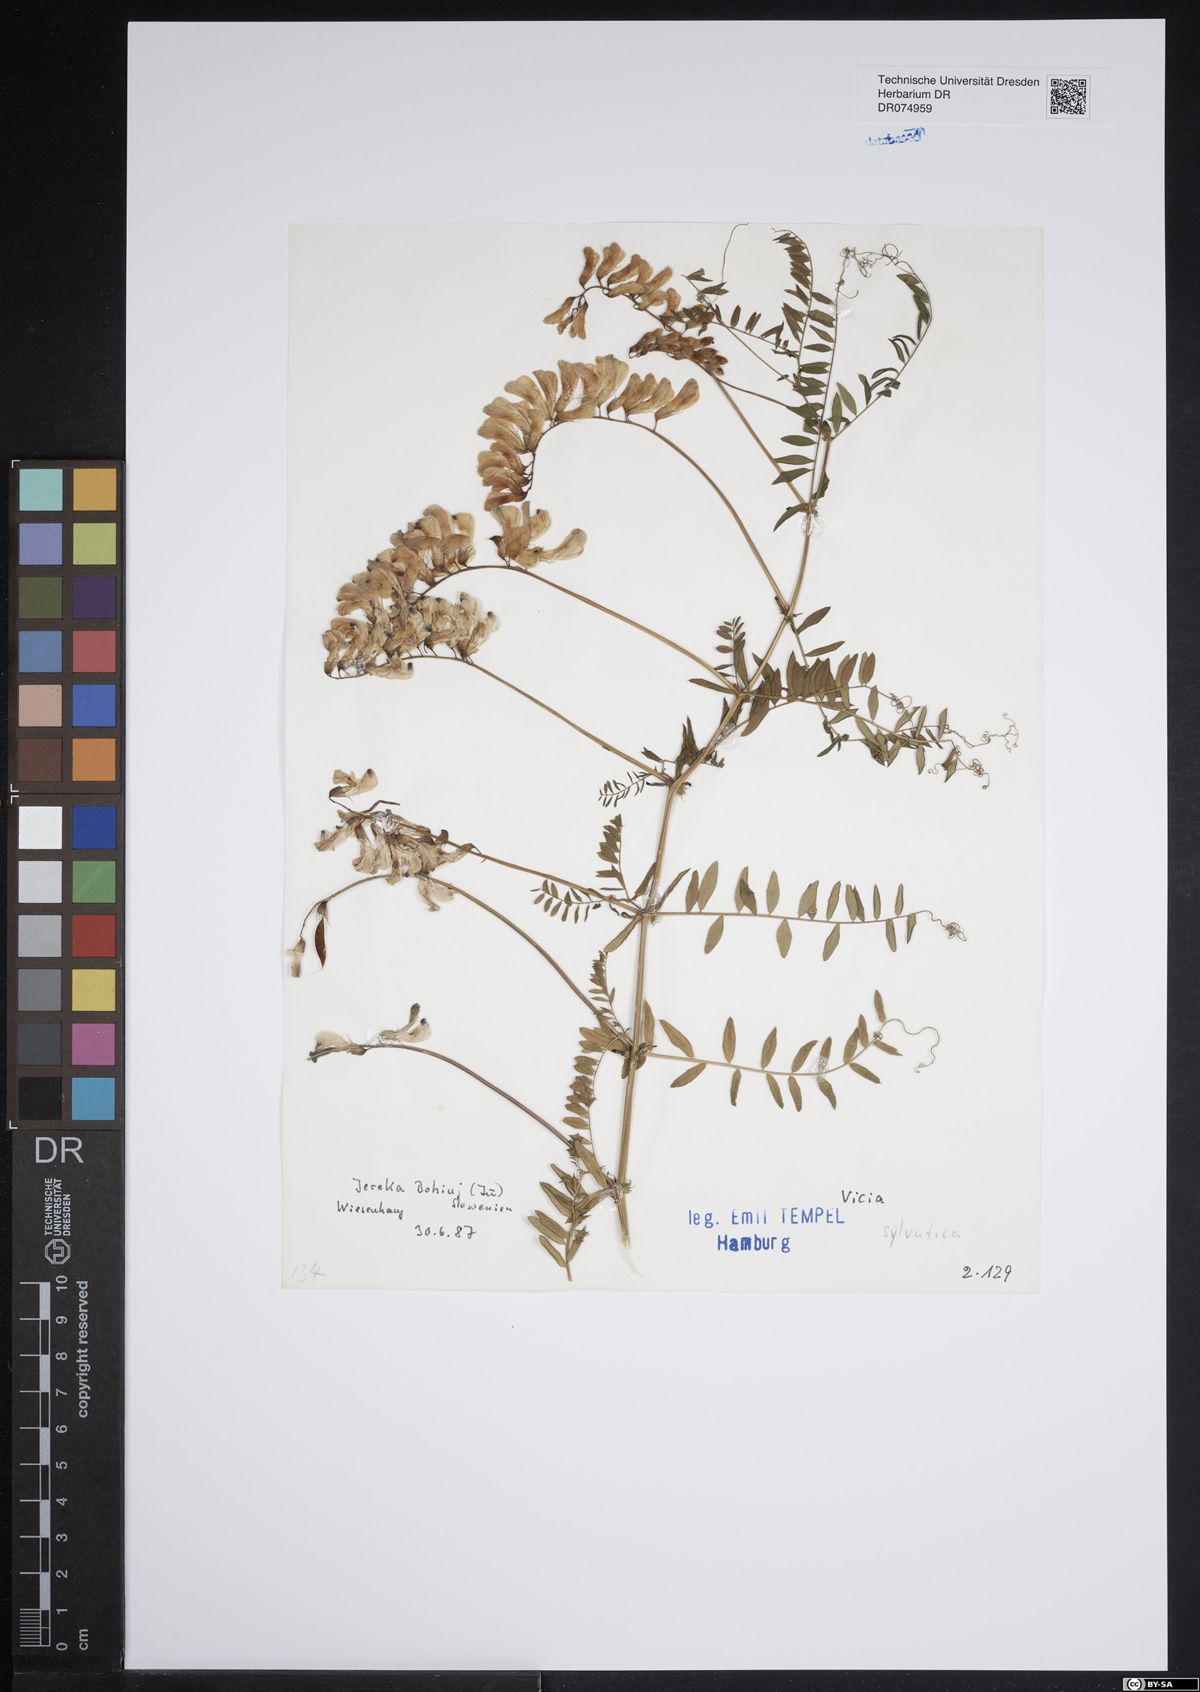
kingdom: Plantae
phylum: Tracheophyta
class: Magnoliopsida
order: Fabales
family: Fabaceae
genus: Vicia
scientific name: Vicia sylvatica
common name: Wood vetch
